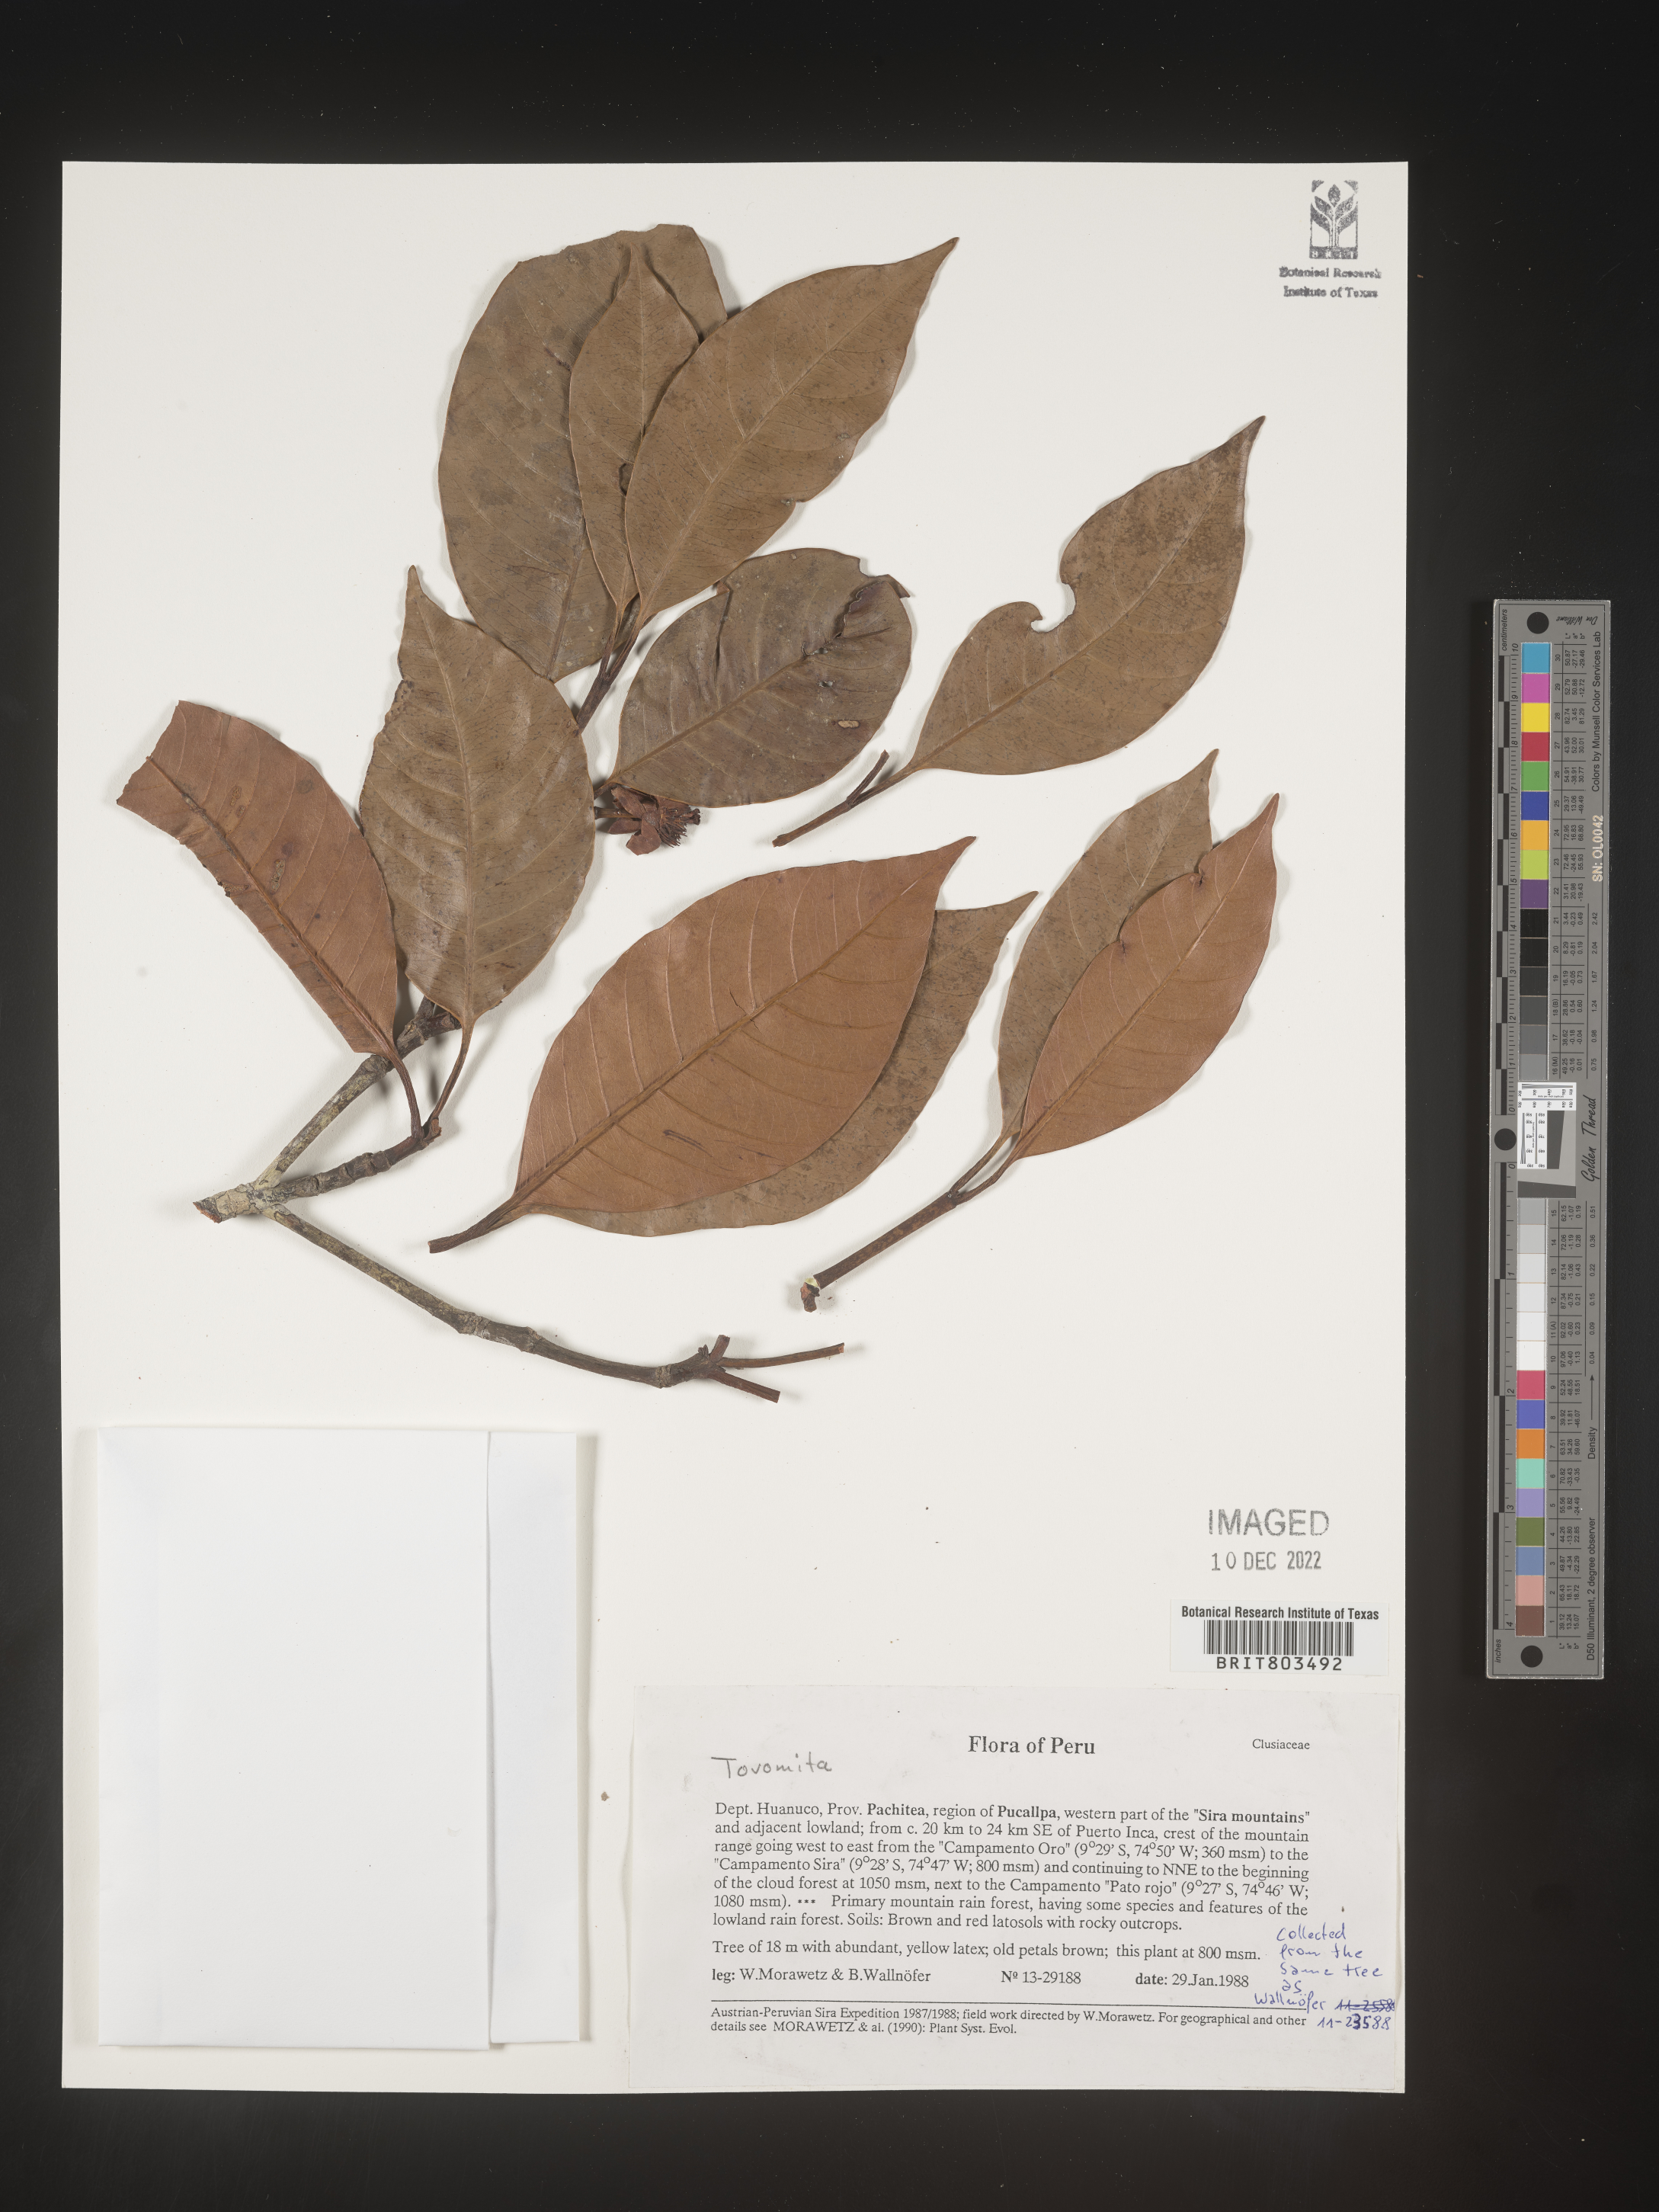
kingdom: Plantae
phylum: Tracheophyta
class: Magnoliopsida
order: Malpighiales
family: Clusiaceae
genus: Tovomita
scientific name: Tovomita
